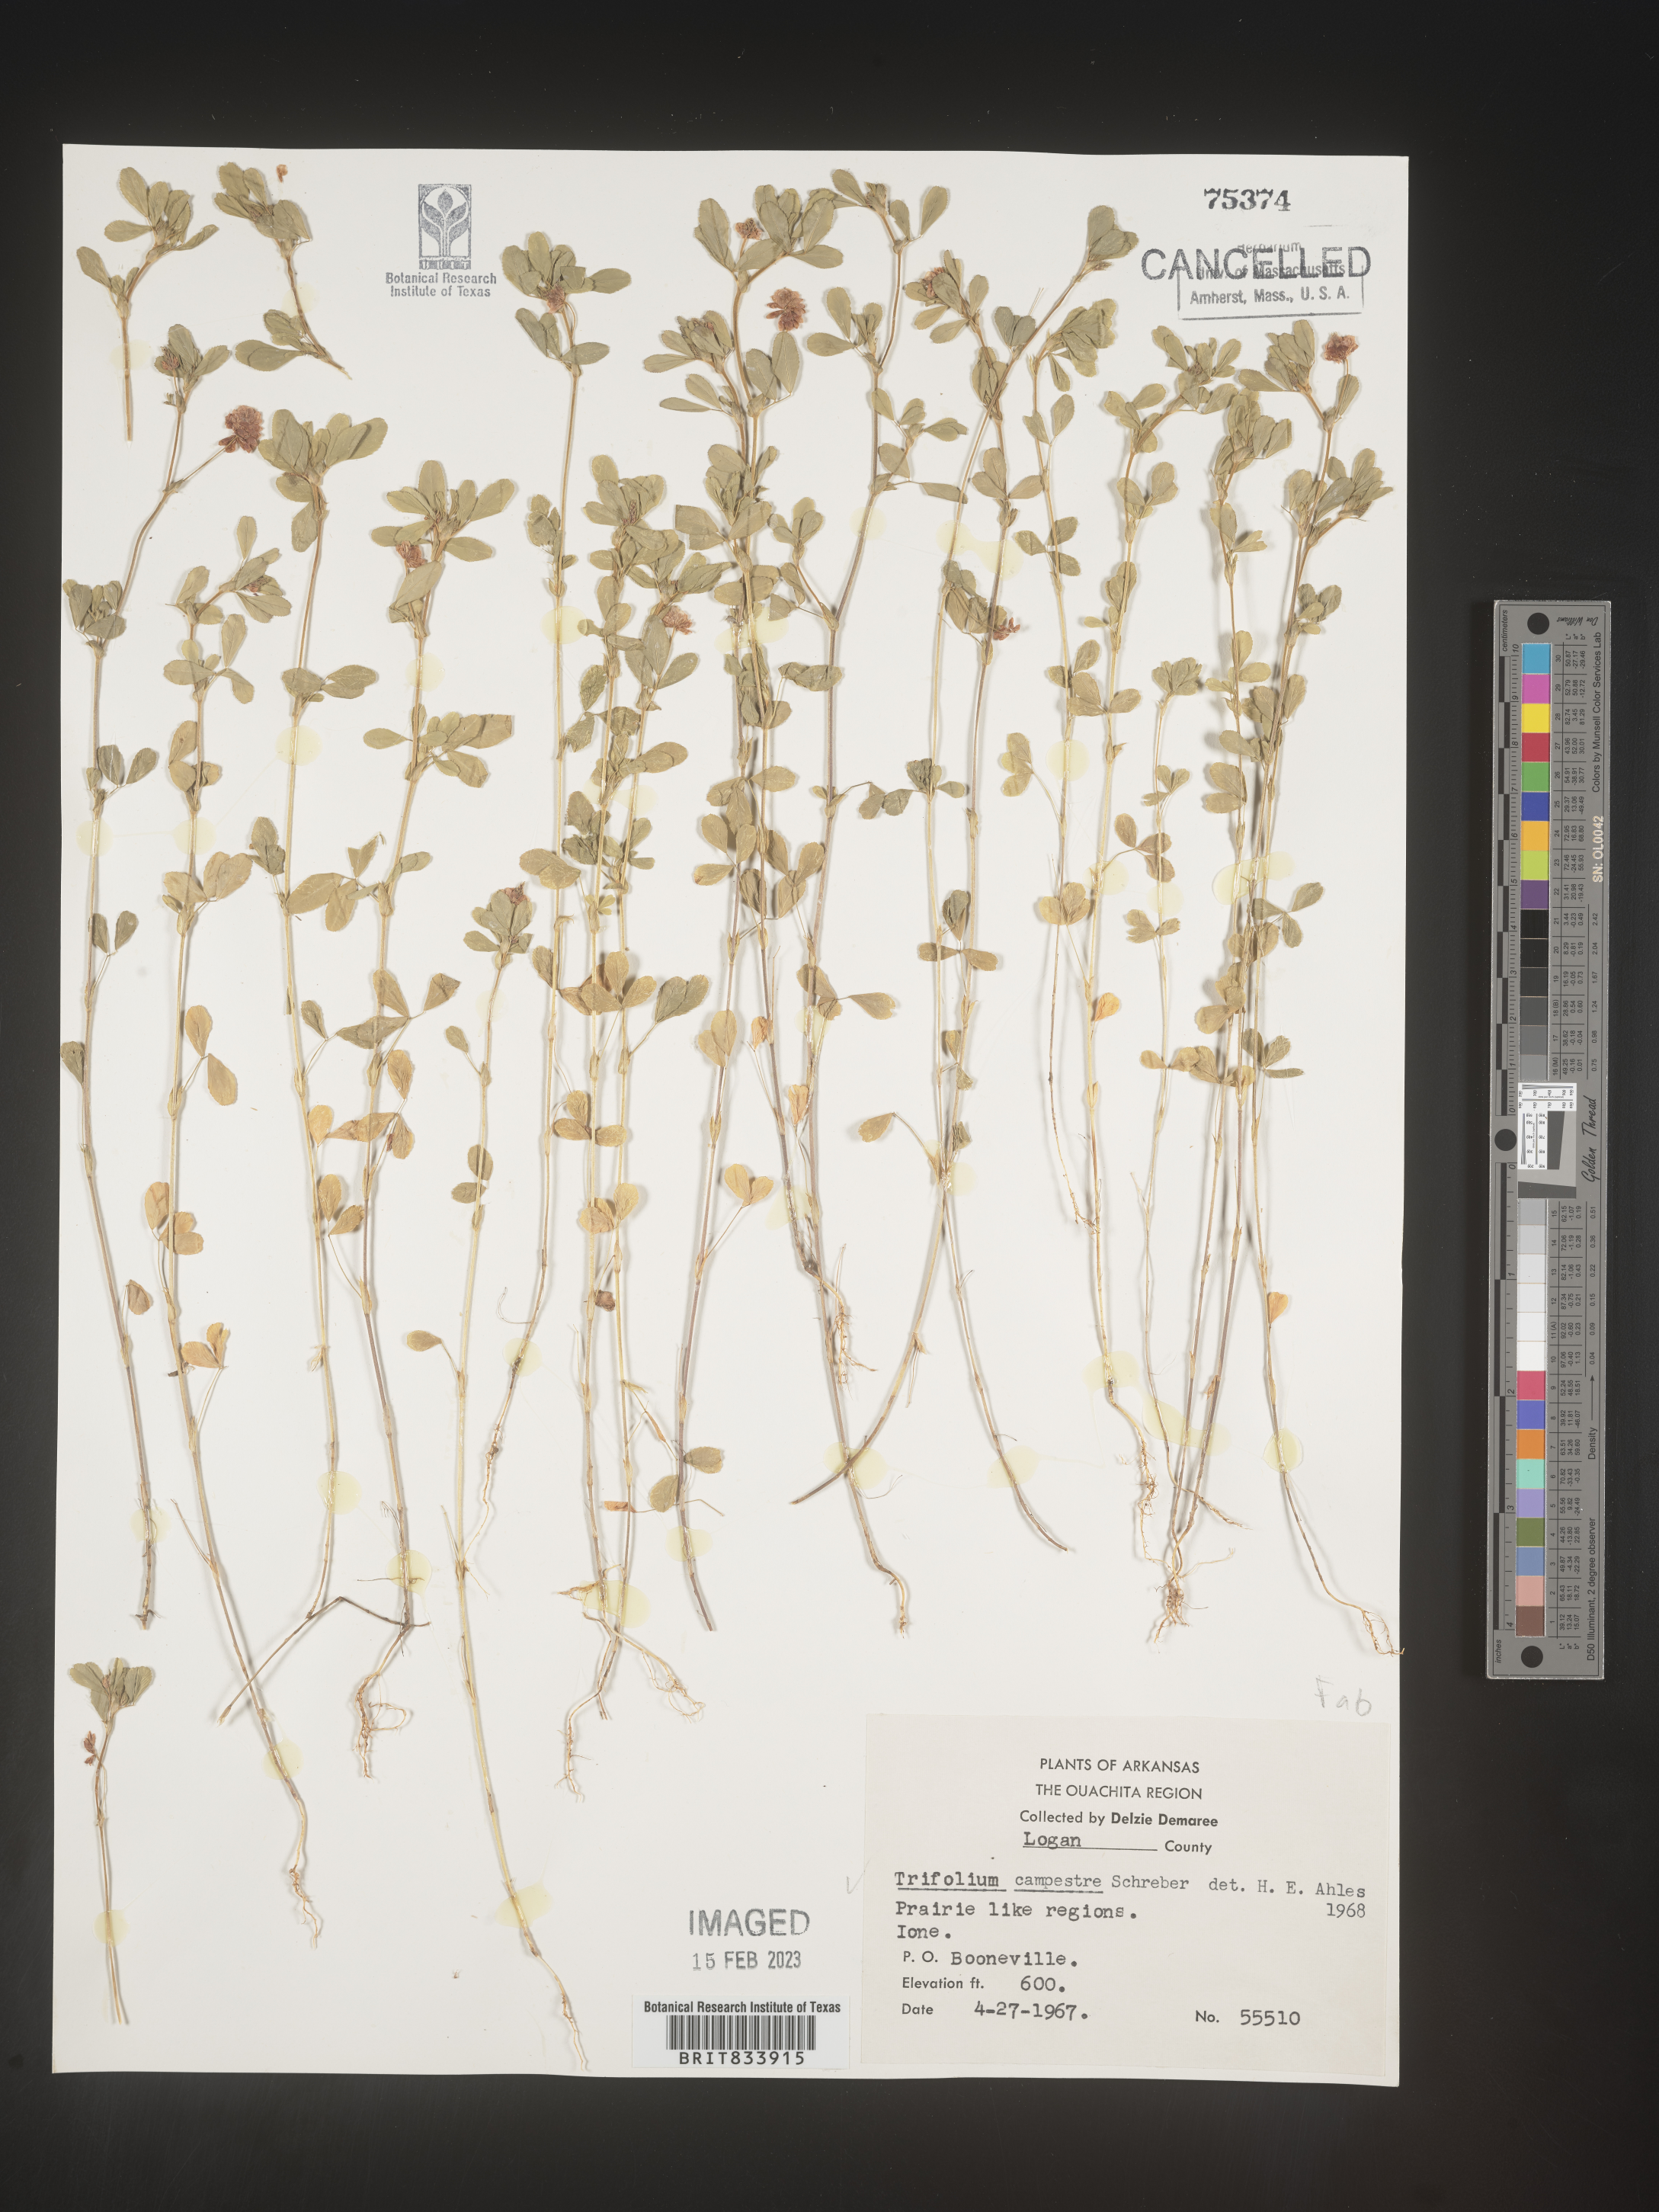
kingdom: Plantae
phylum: Tracheophyta
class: Magnoliopsida
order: Fabales
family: Fabaceae
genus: Trifolium
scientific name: Trifolium campestre
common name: Field clover
